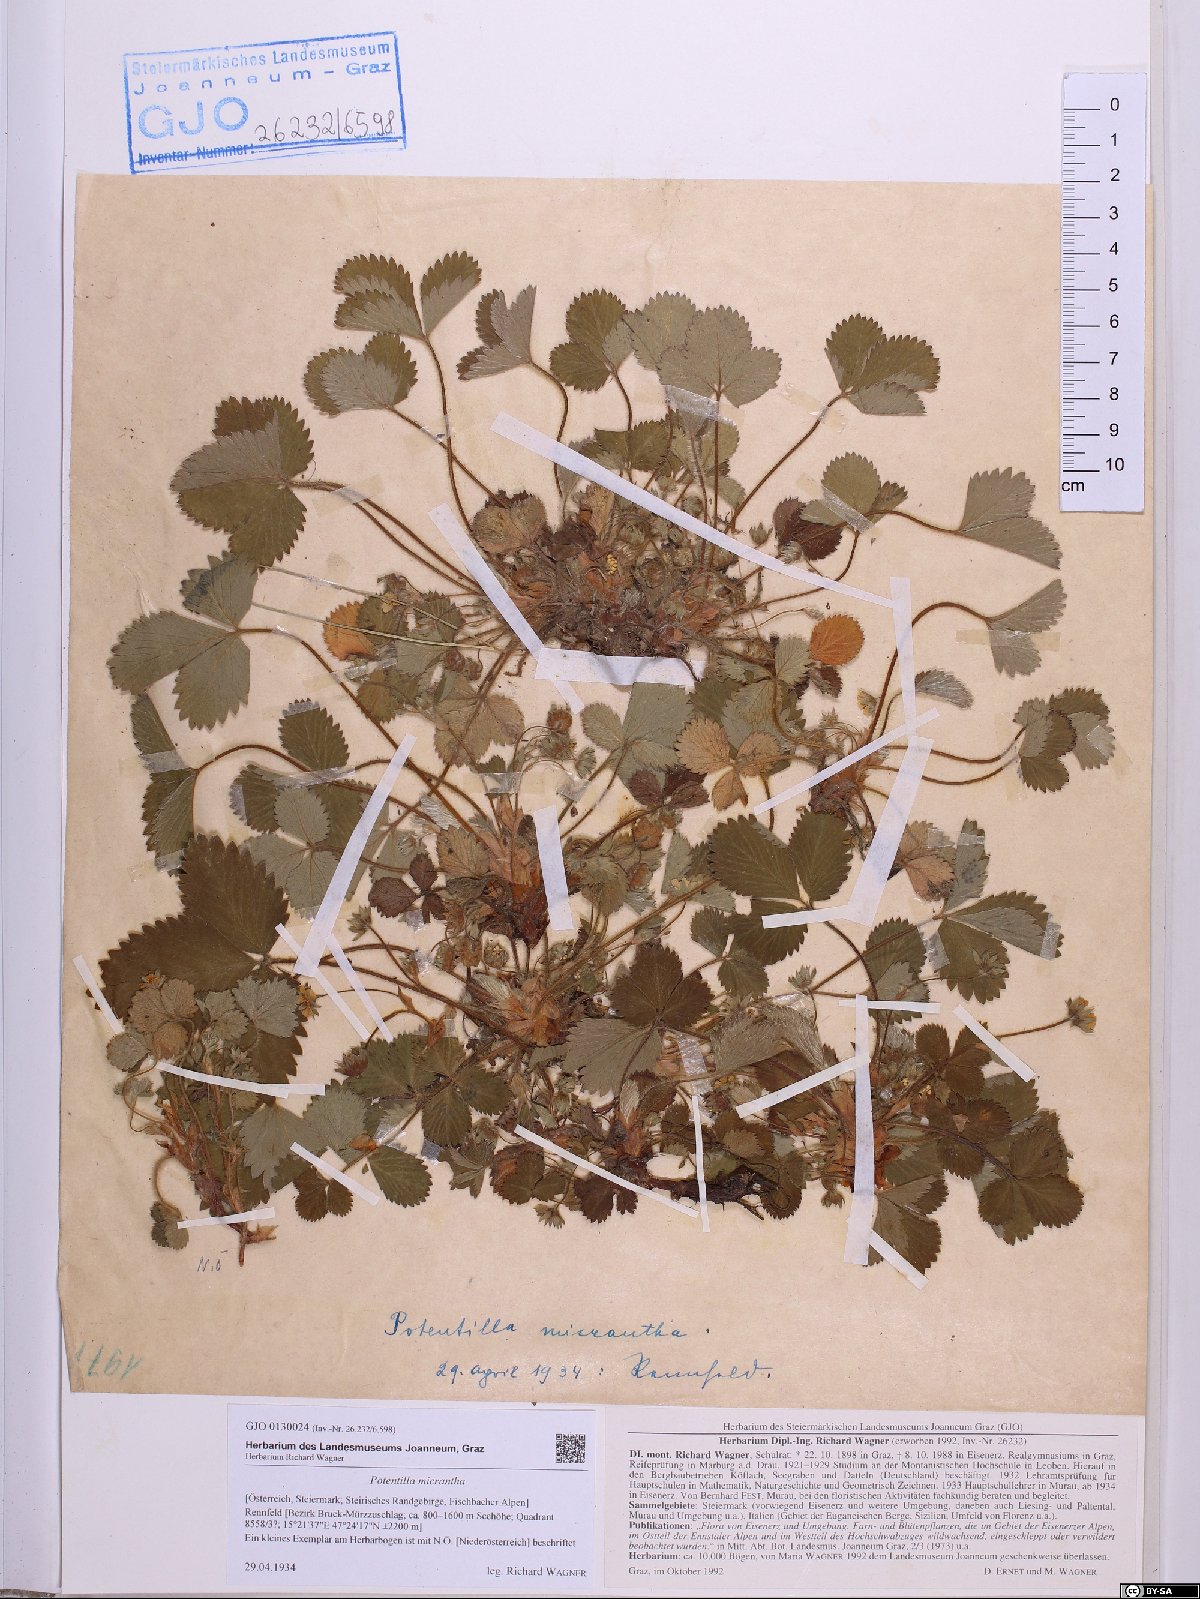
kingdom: Plantae
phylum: Tracheophyta
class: Magnoliopsida
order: Rosales
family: Rosaceae
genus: Potentilla
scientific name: Potentilla micrantha
